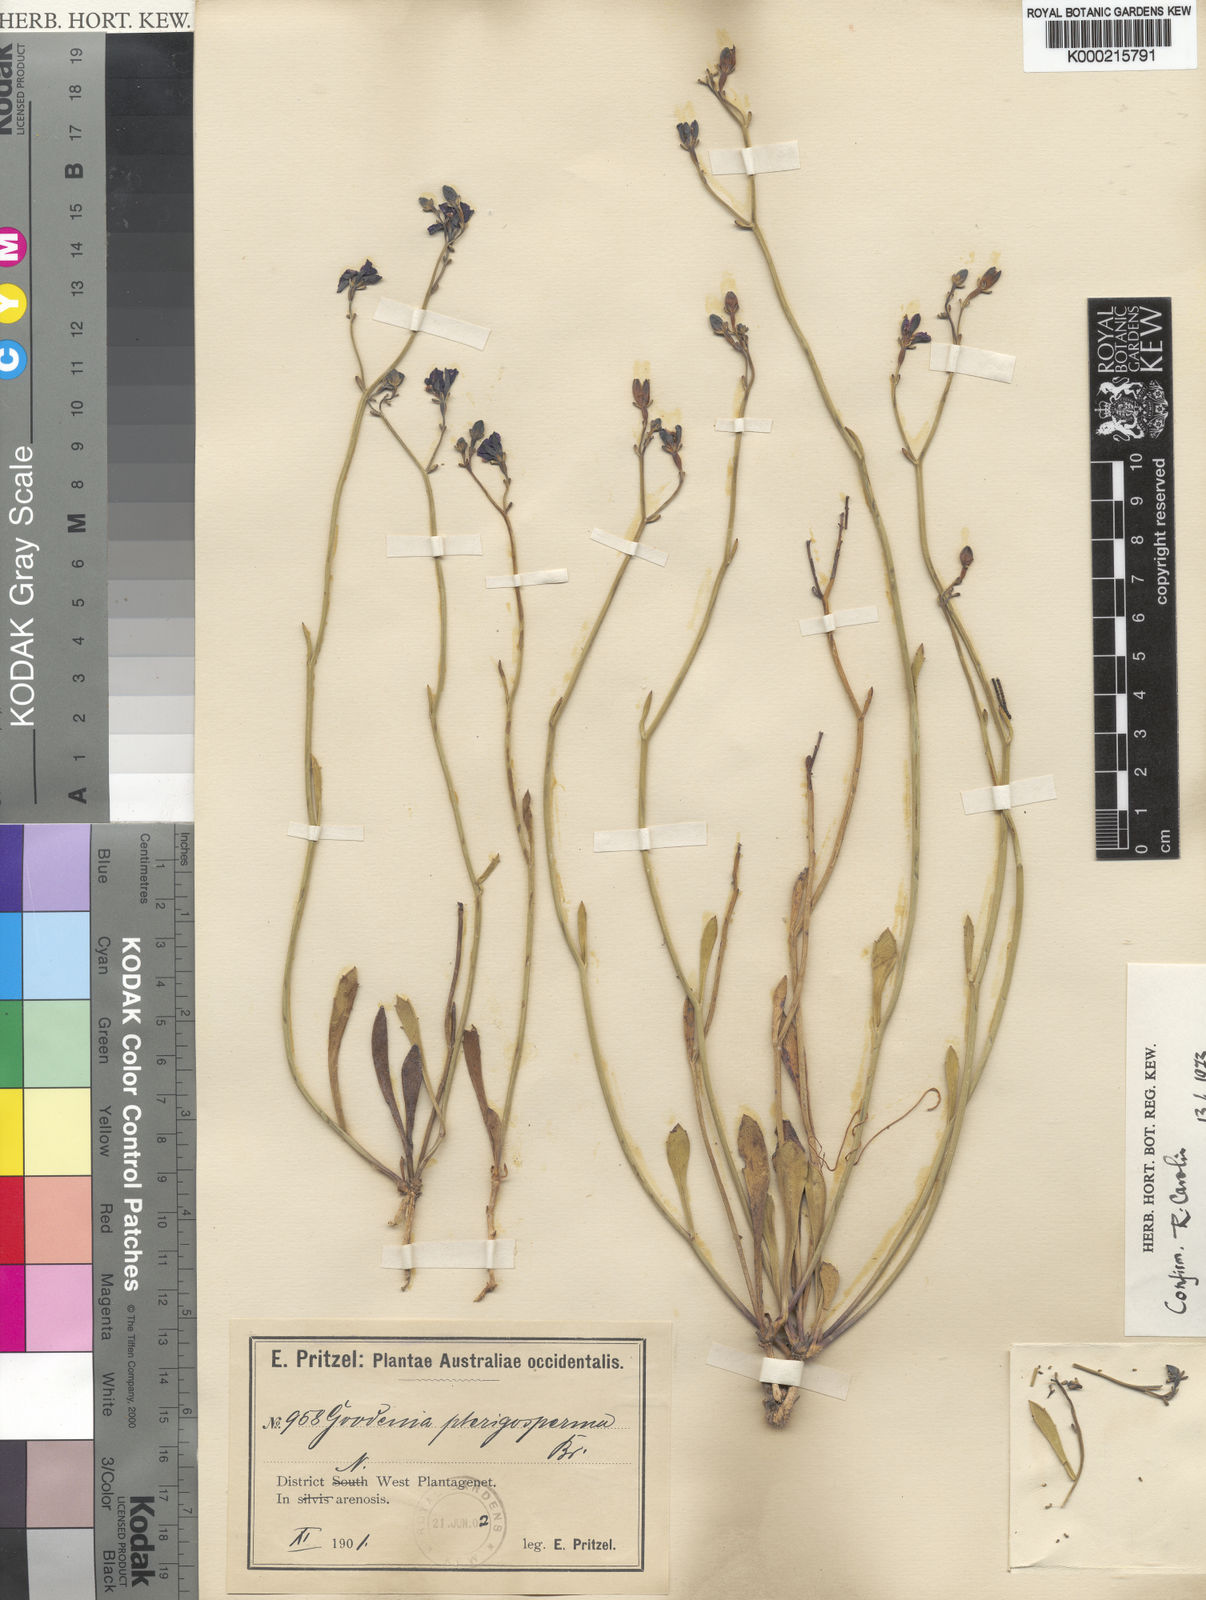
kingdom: Plantae
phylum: Tracheophyta
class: Magnoliopsida
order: Asterales
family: Goodeniaceae
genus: Goodenia
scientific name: Goodenia pterygosperma
